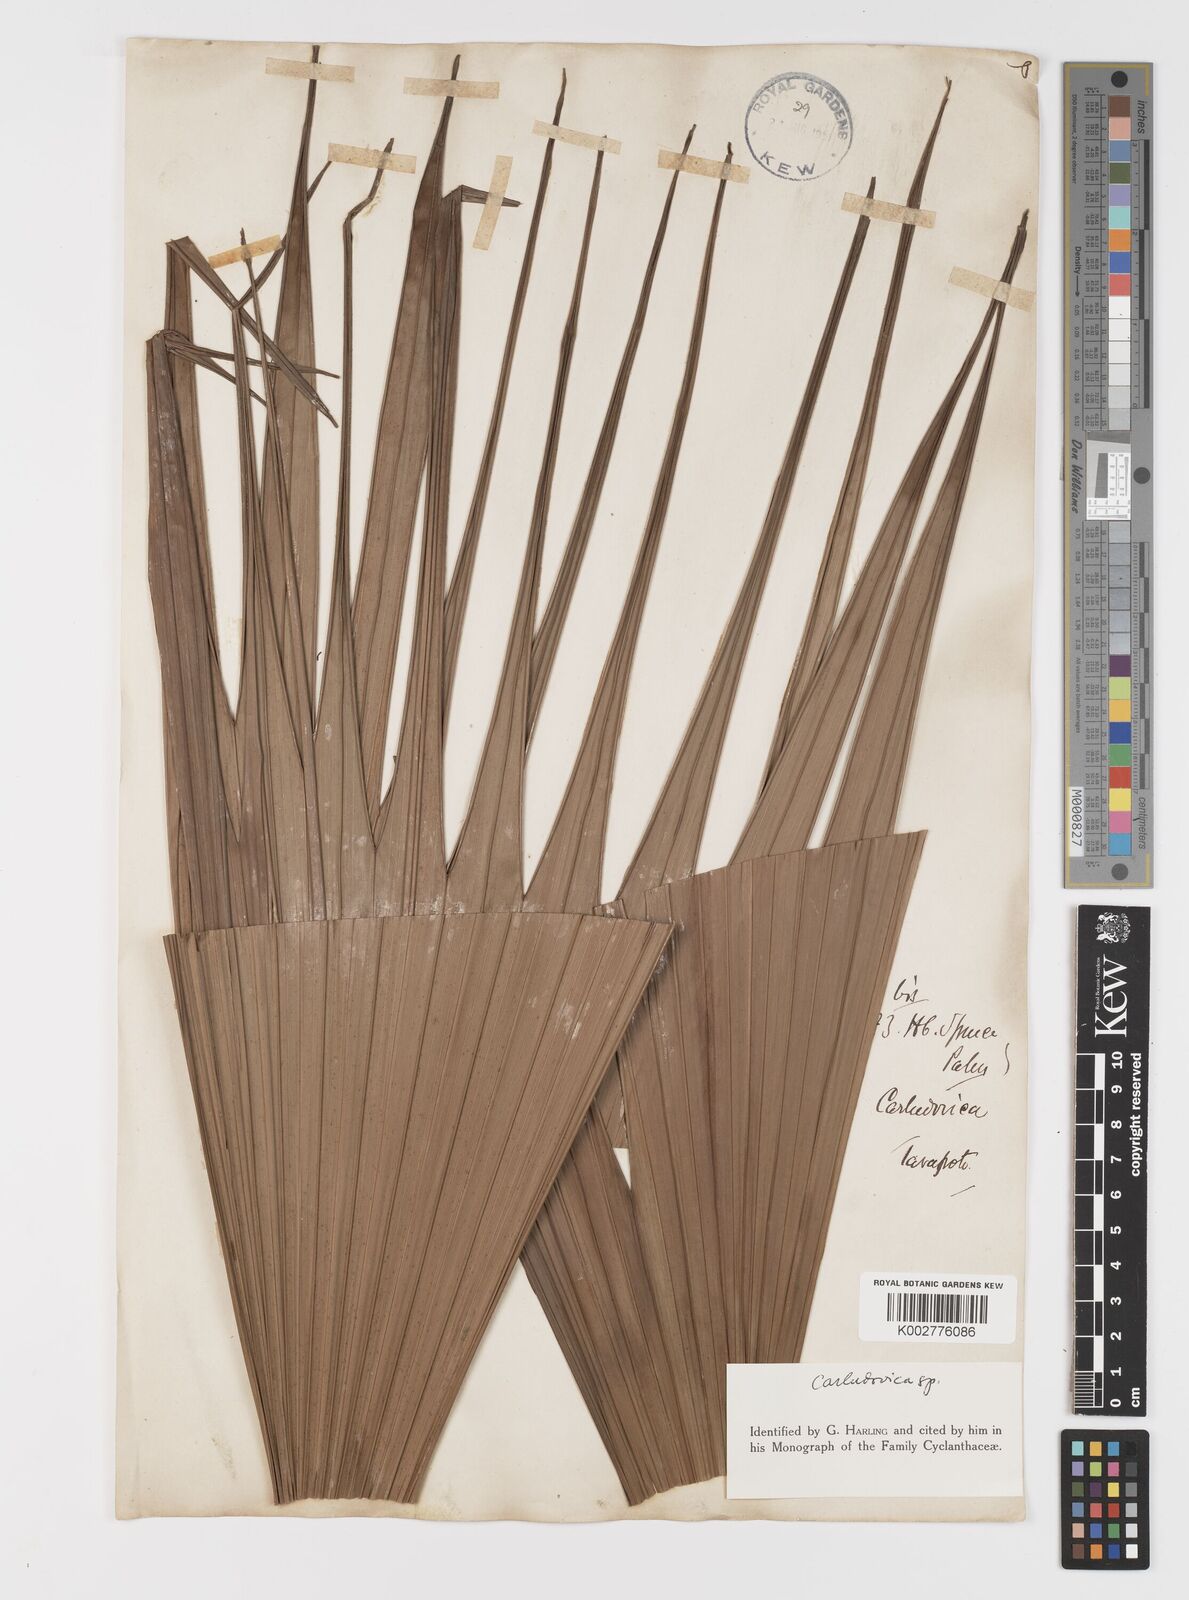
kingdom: Plantae
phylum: Tracheophyta
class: Liliopsida
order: Pandanales
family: Cyclanthaceae
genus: Carludovica
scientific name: Carludovica palmata
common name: Panama hat plant
